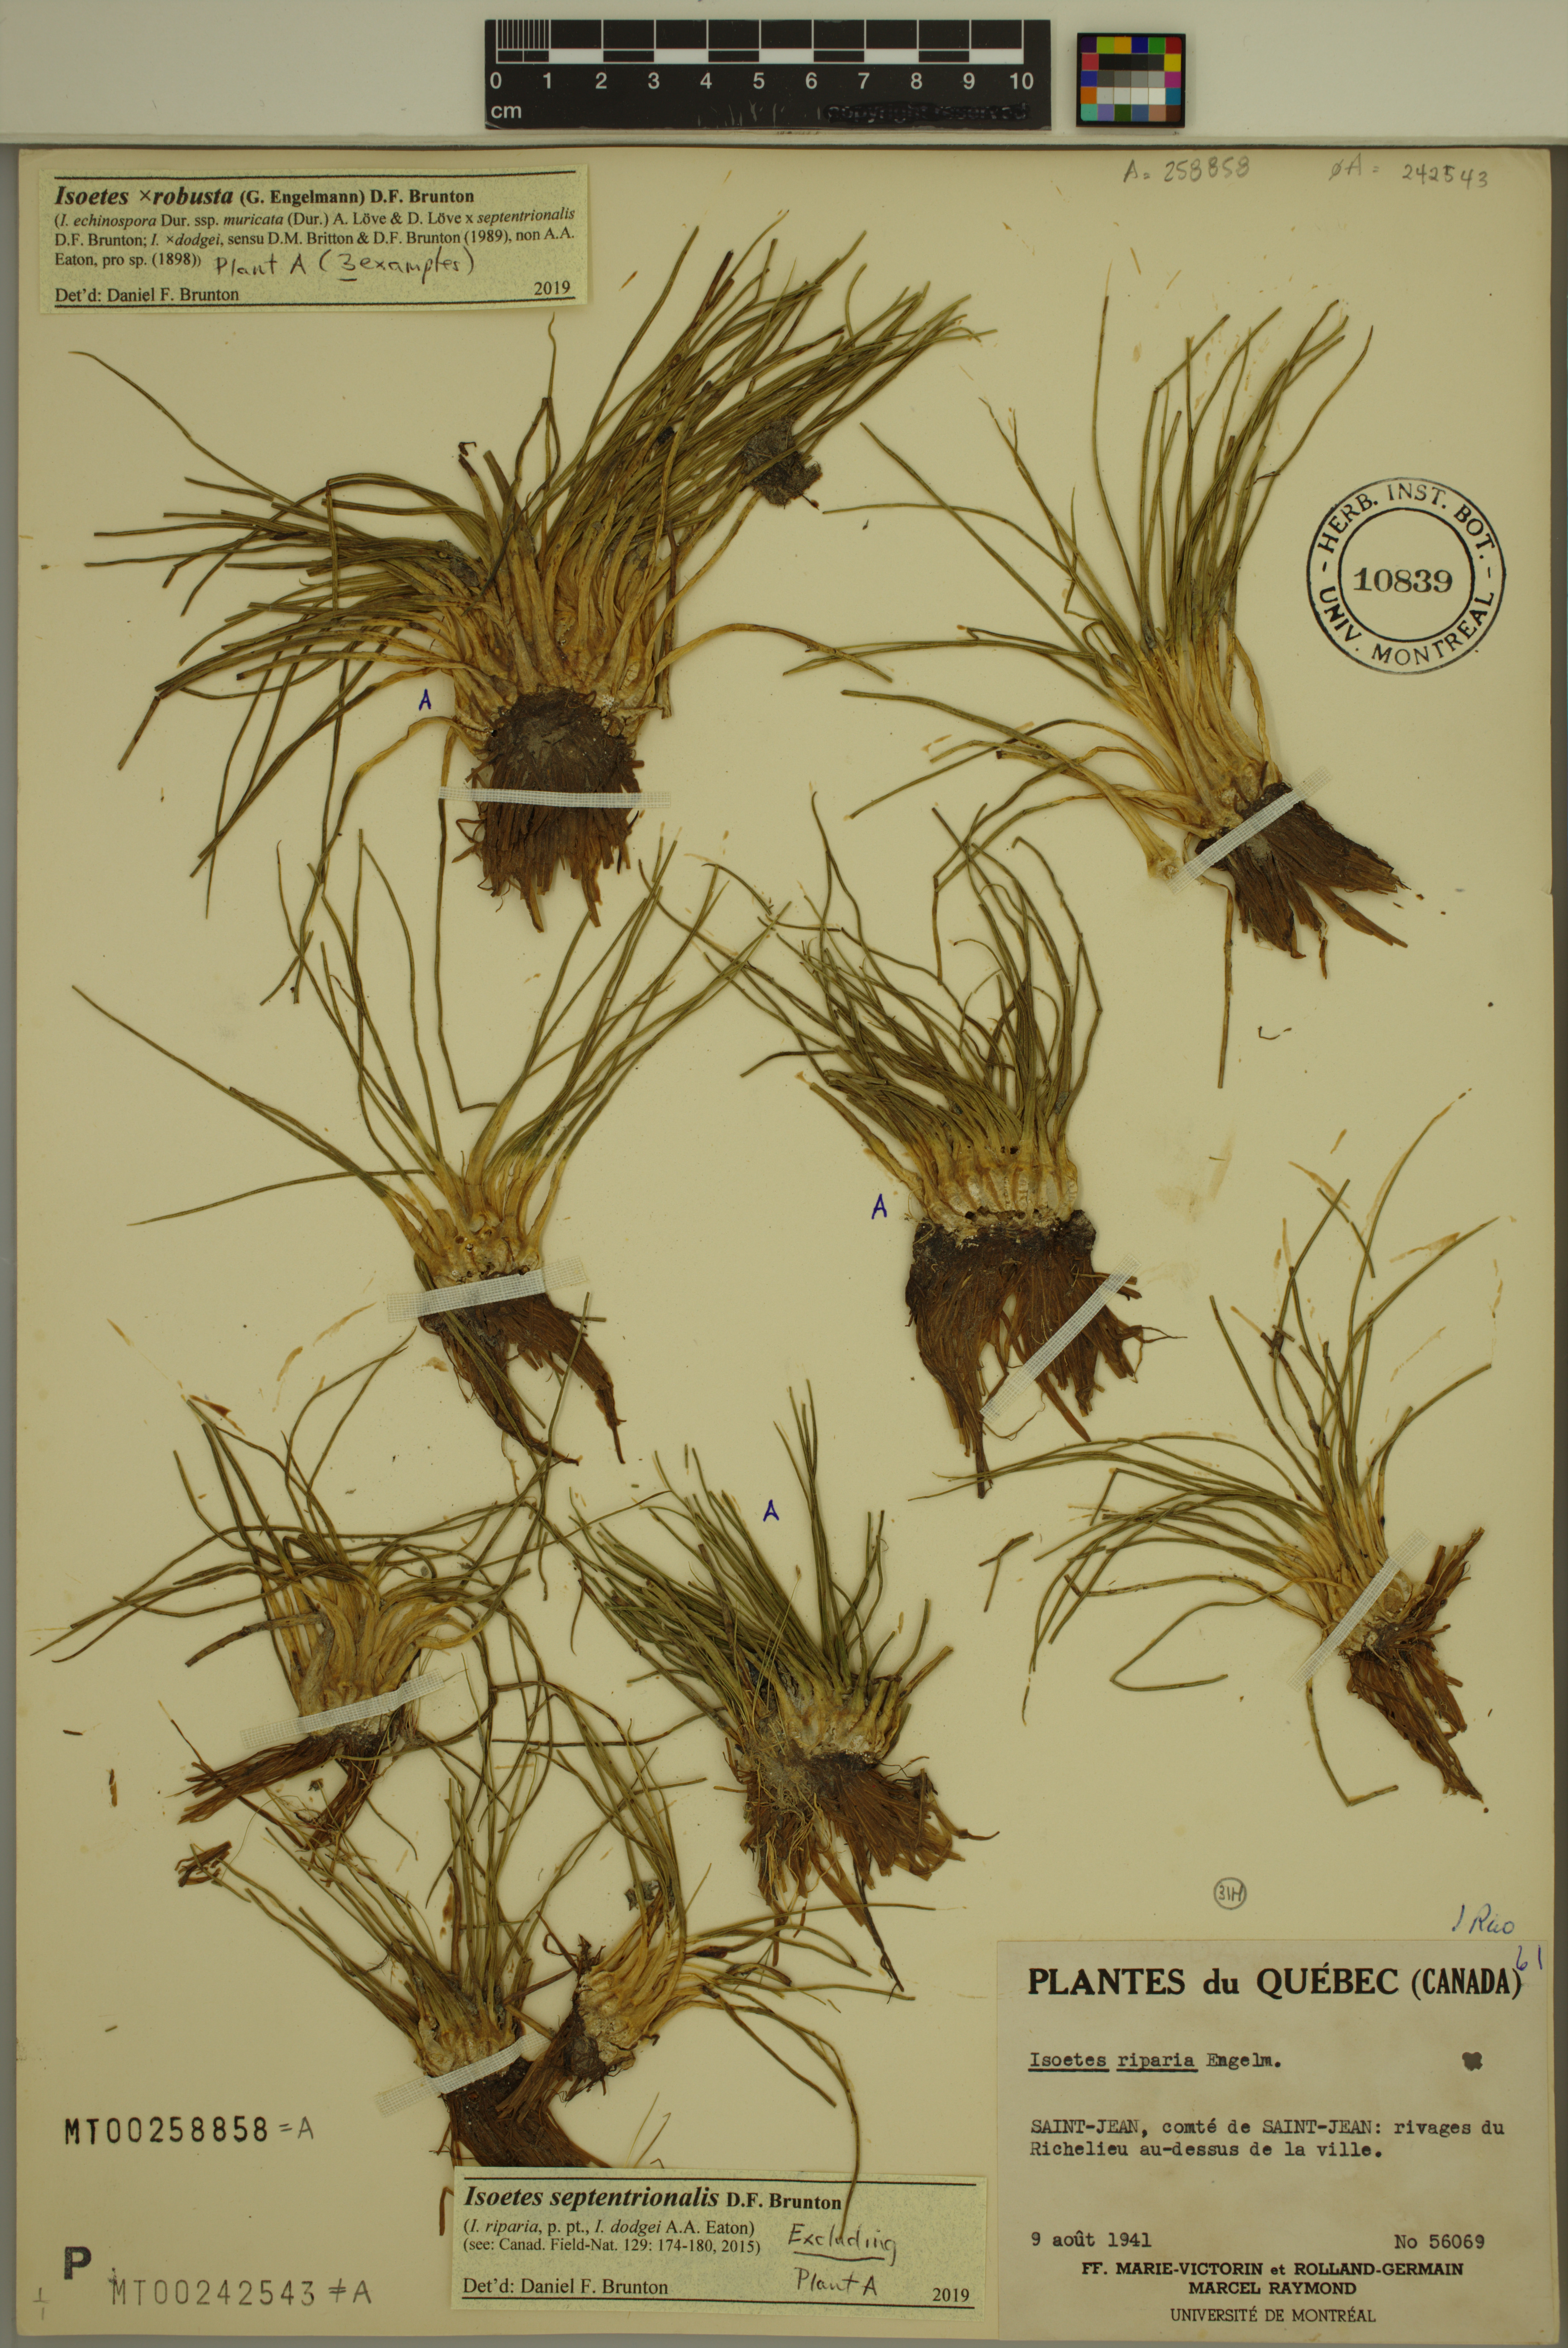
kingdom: Plantae
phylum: Tracheophyta
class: Lycopodiopsida
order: Isoetales
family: Isoetaceae
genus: Isoetes
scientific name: Isoetes septentrionalis
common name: Northern quillwort
